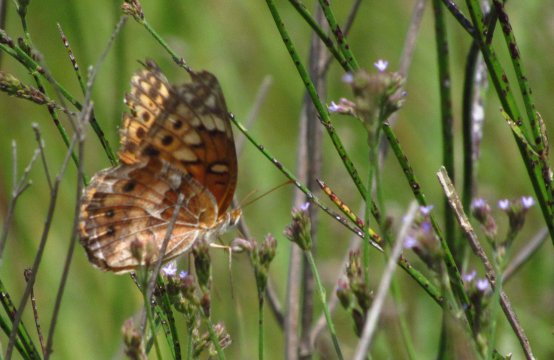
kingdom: Animalia
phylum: Arthropoda
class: Insecta
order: Lepidoptera
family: Nymphalidae
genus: Euptoieta
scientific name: Euptoieta claudia
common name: Variegated Fritillary
